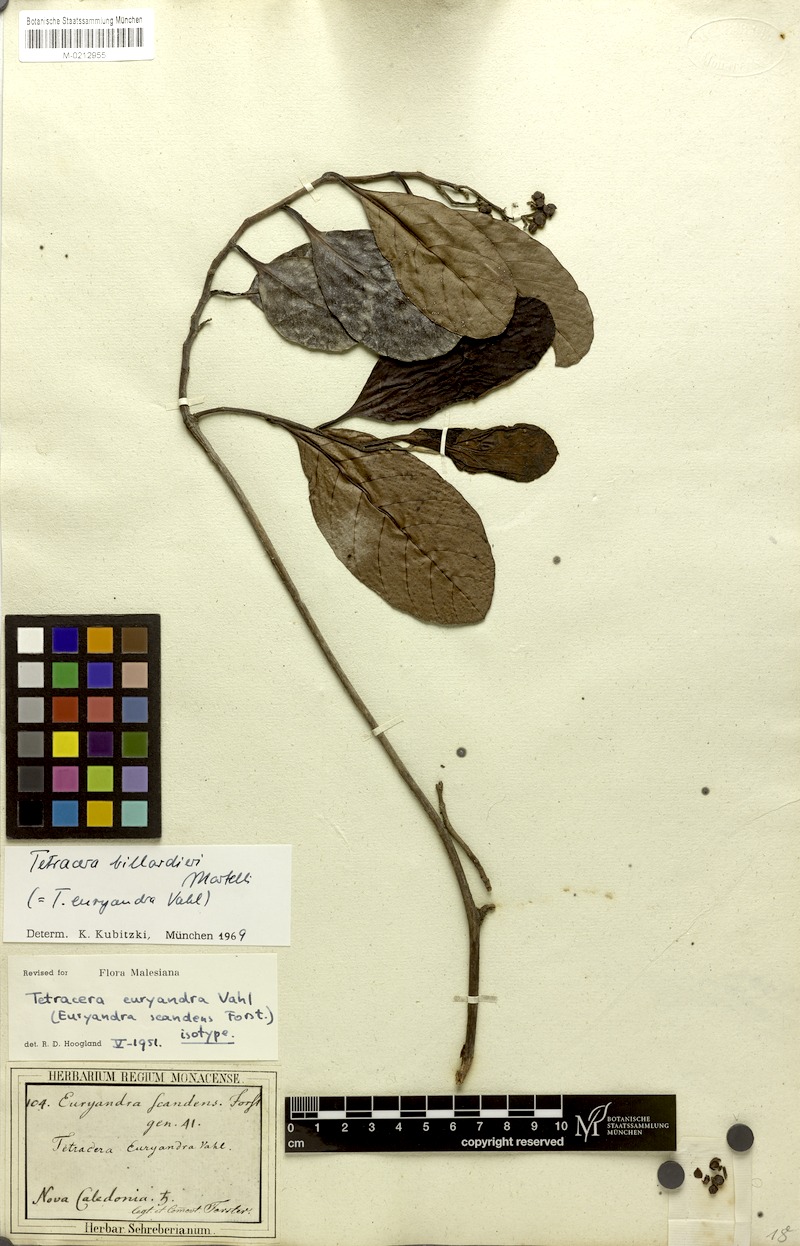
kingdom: Plantae
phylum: Tracheophyta
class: Magnoliopsida
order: Dilleniales
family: Dilleniaceae
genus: Tetracera
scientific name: Tetracera sarmentosa
